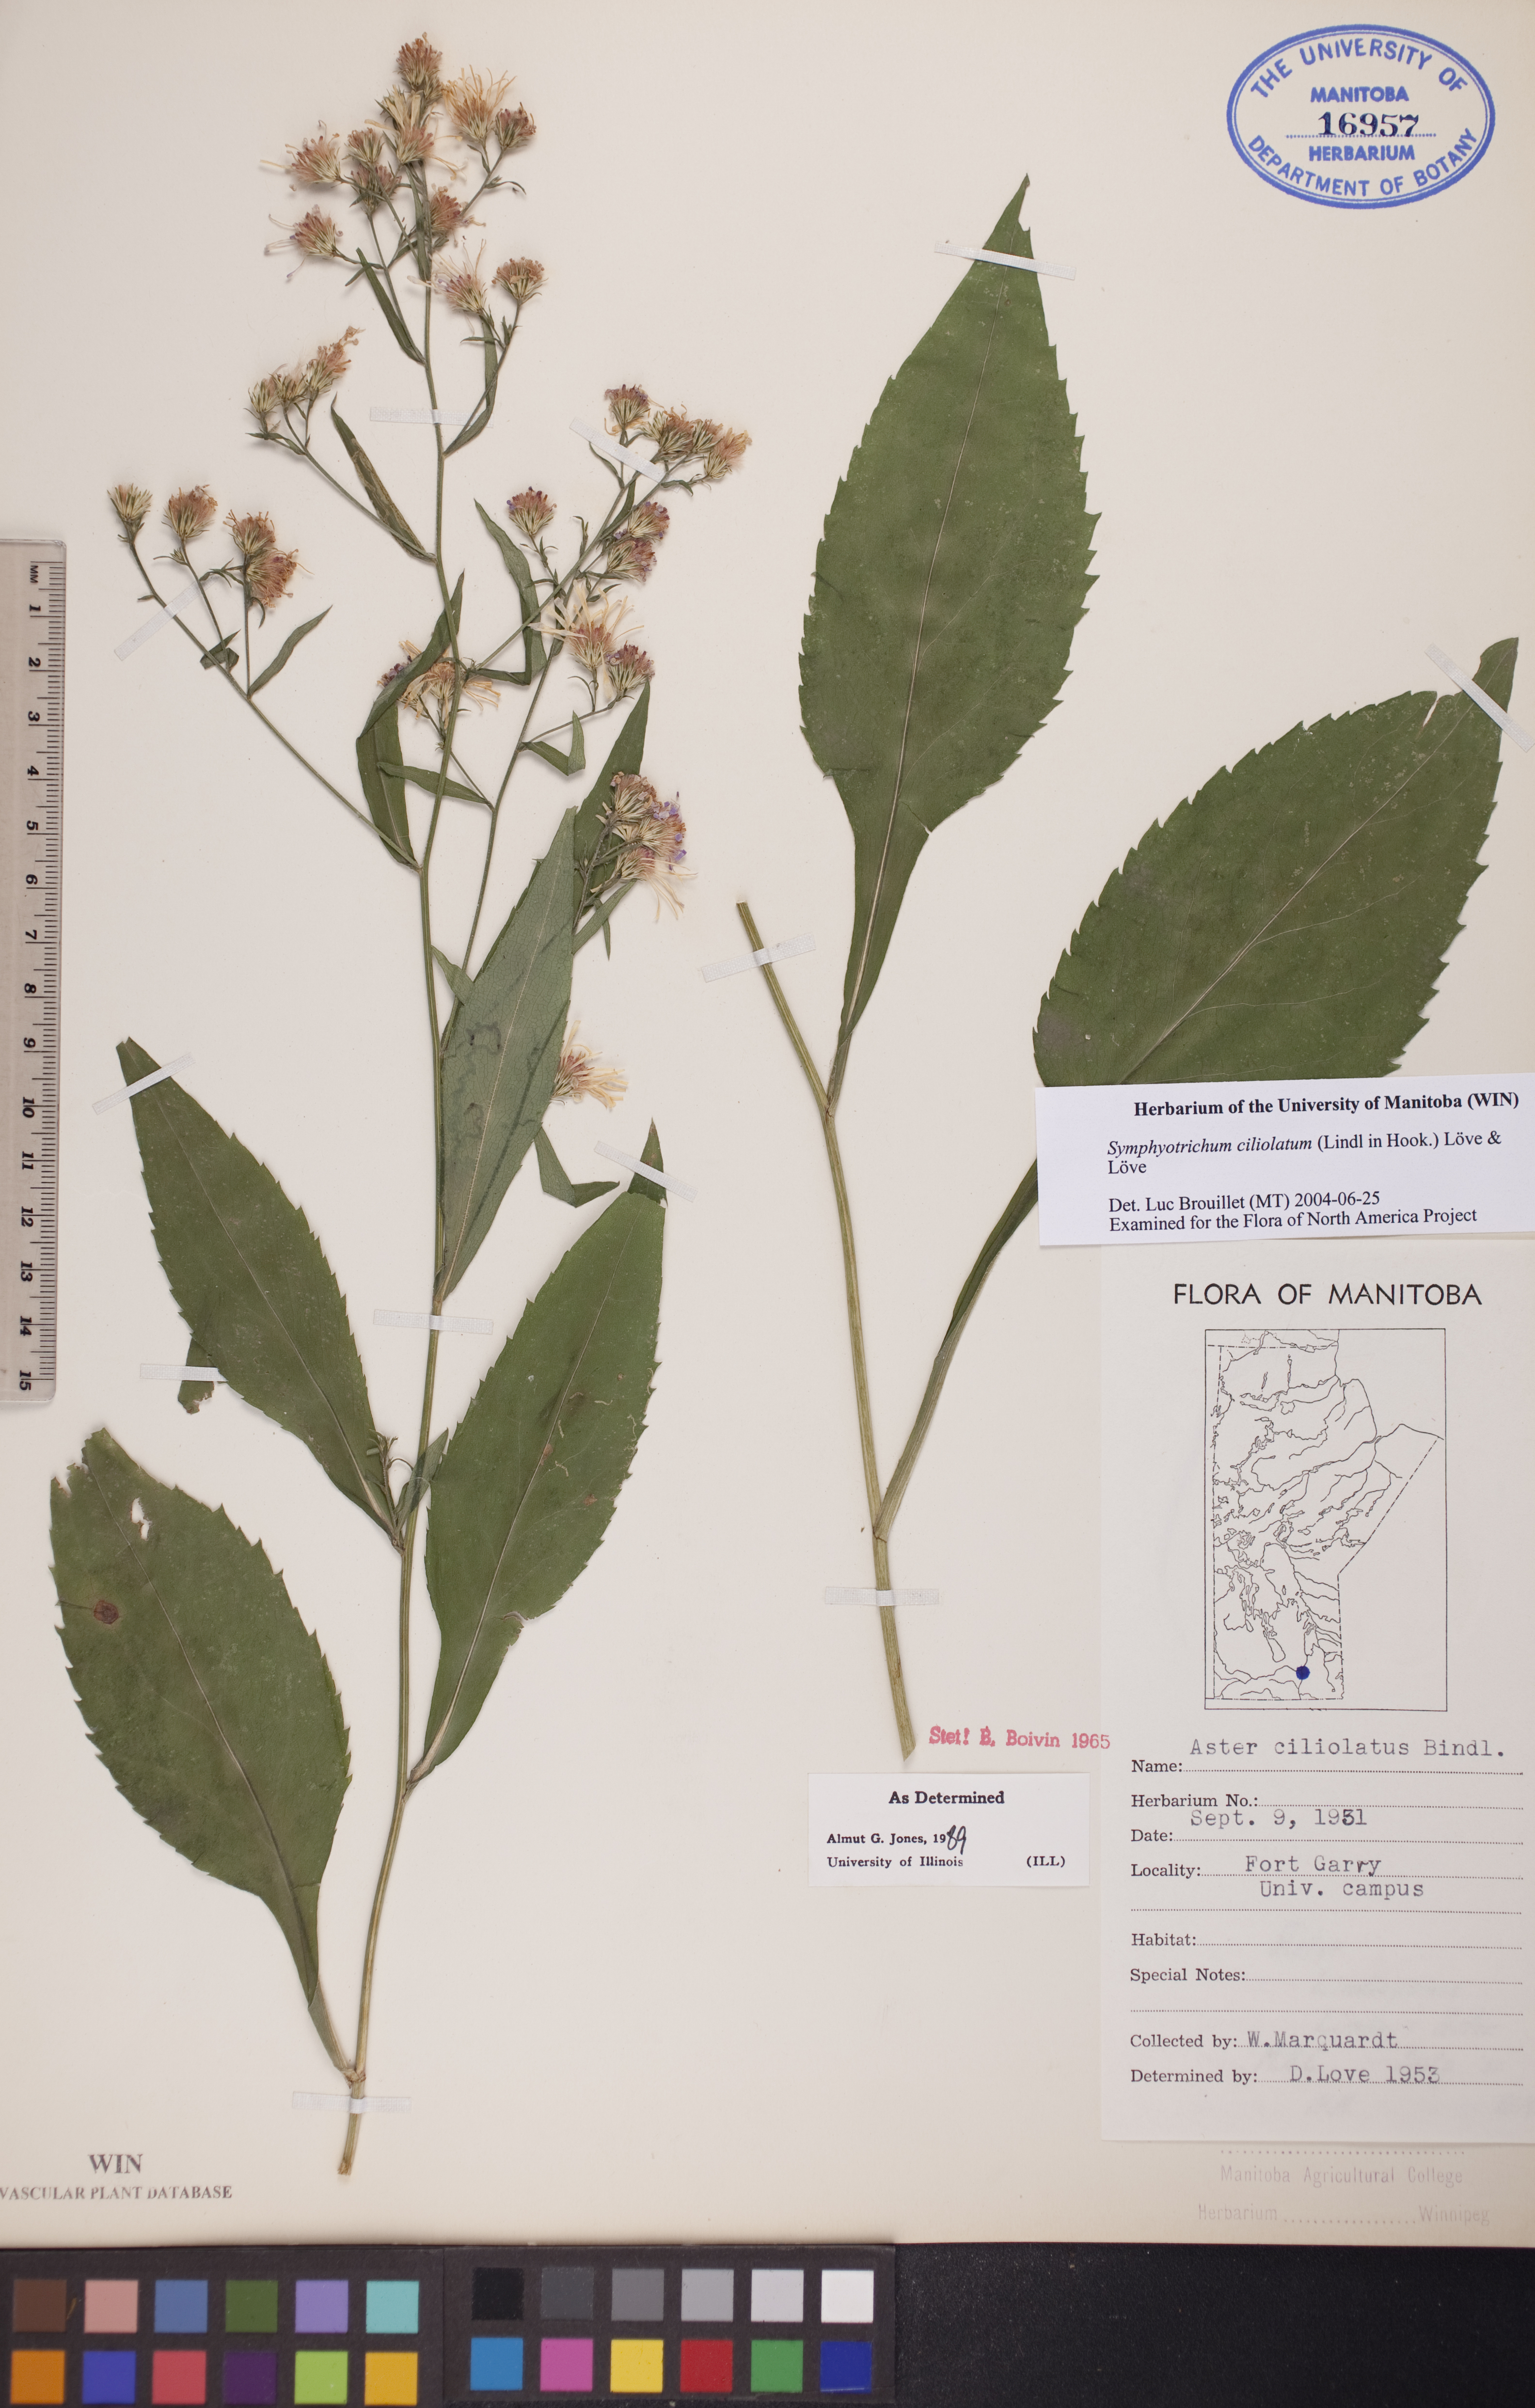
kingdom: Plantae
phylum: Tracheophyta
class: Magnoliopsida
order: Asterales
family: Asteraceae
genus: Symphyotrichum
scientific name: Symphyotrichum ciliolatum
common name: Fringed blue aster
